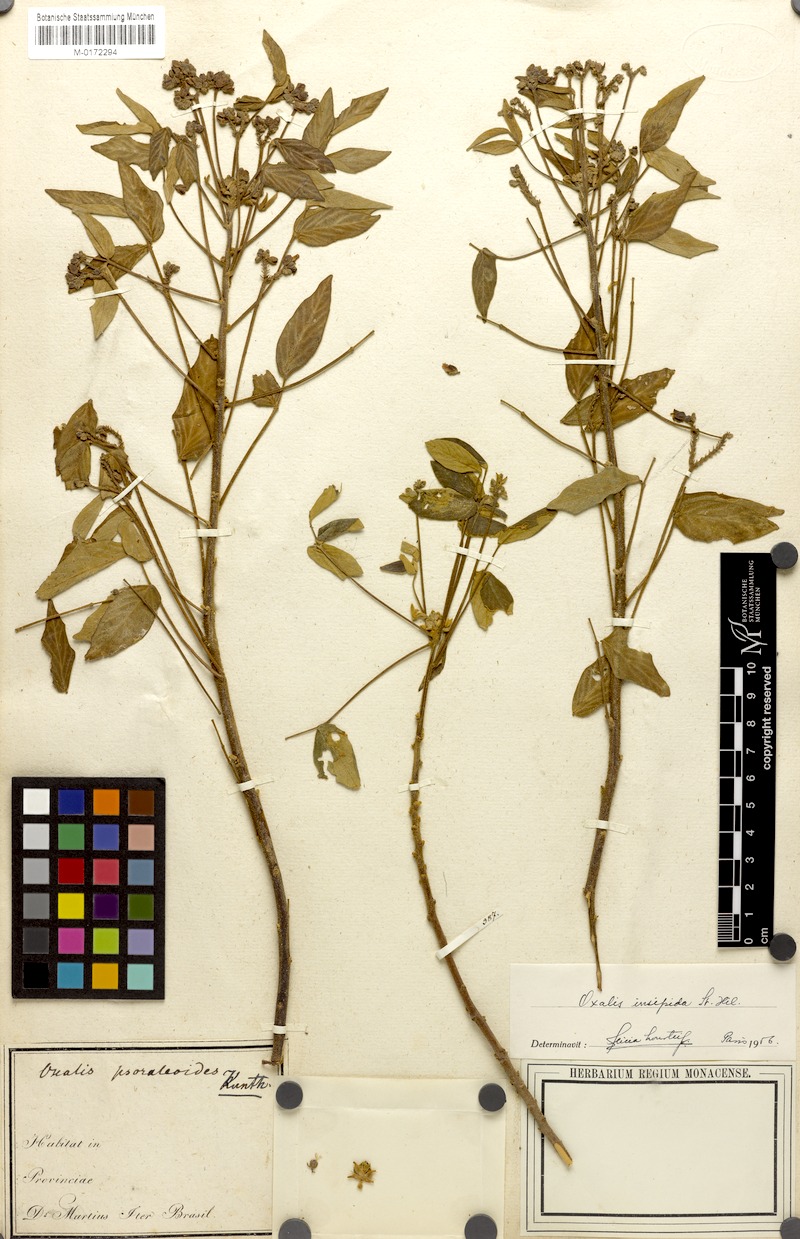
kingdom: Plantae
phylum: Tracheophyta
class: Magnoliopsida
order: Oxalidales
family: Oxalidaceae
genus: Oxalis
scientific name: Oxalis psoraleoides
